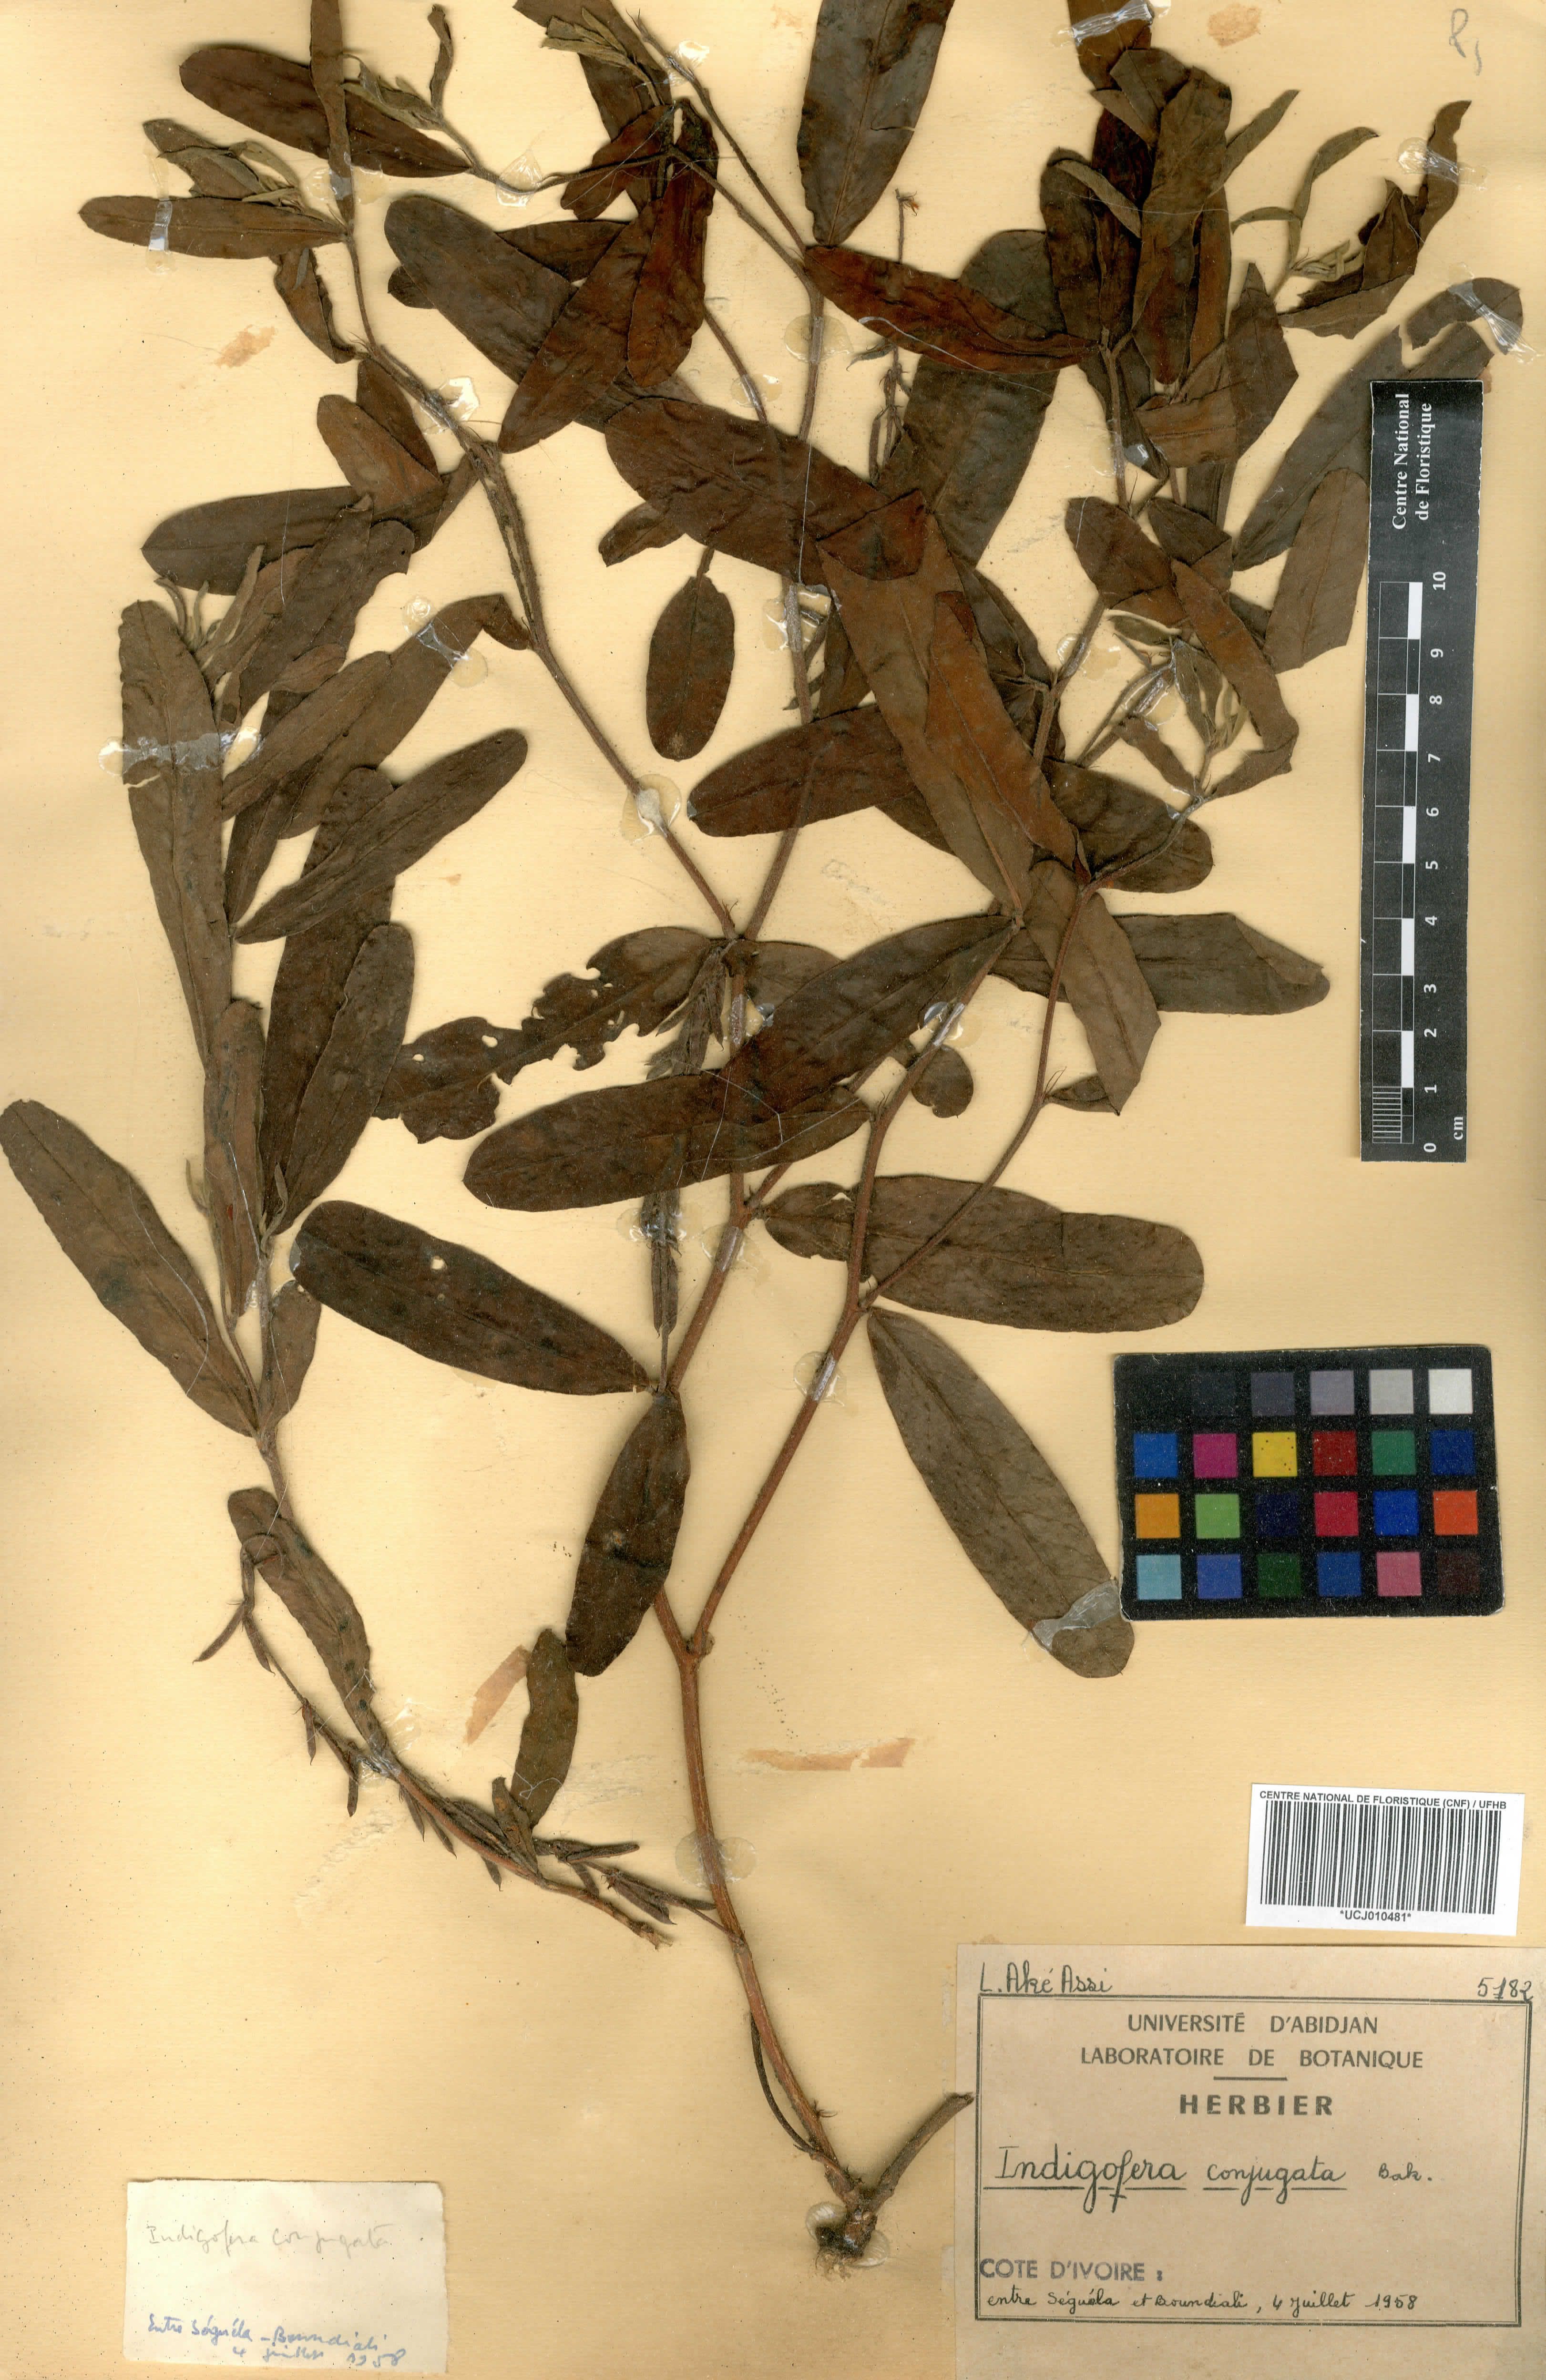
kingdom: Plantae
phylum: Tracheophyta
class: Magnoliopsida
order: Fabales
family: Fabaceae
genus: Indigofera
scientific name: Indigofera conjugata
